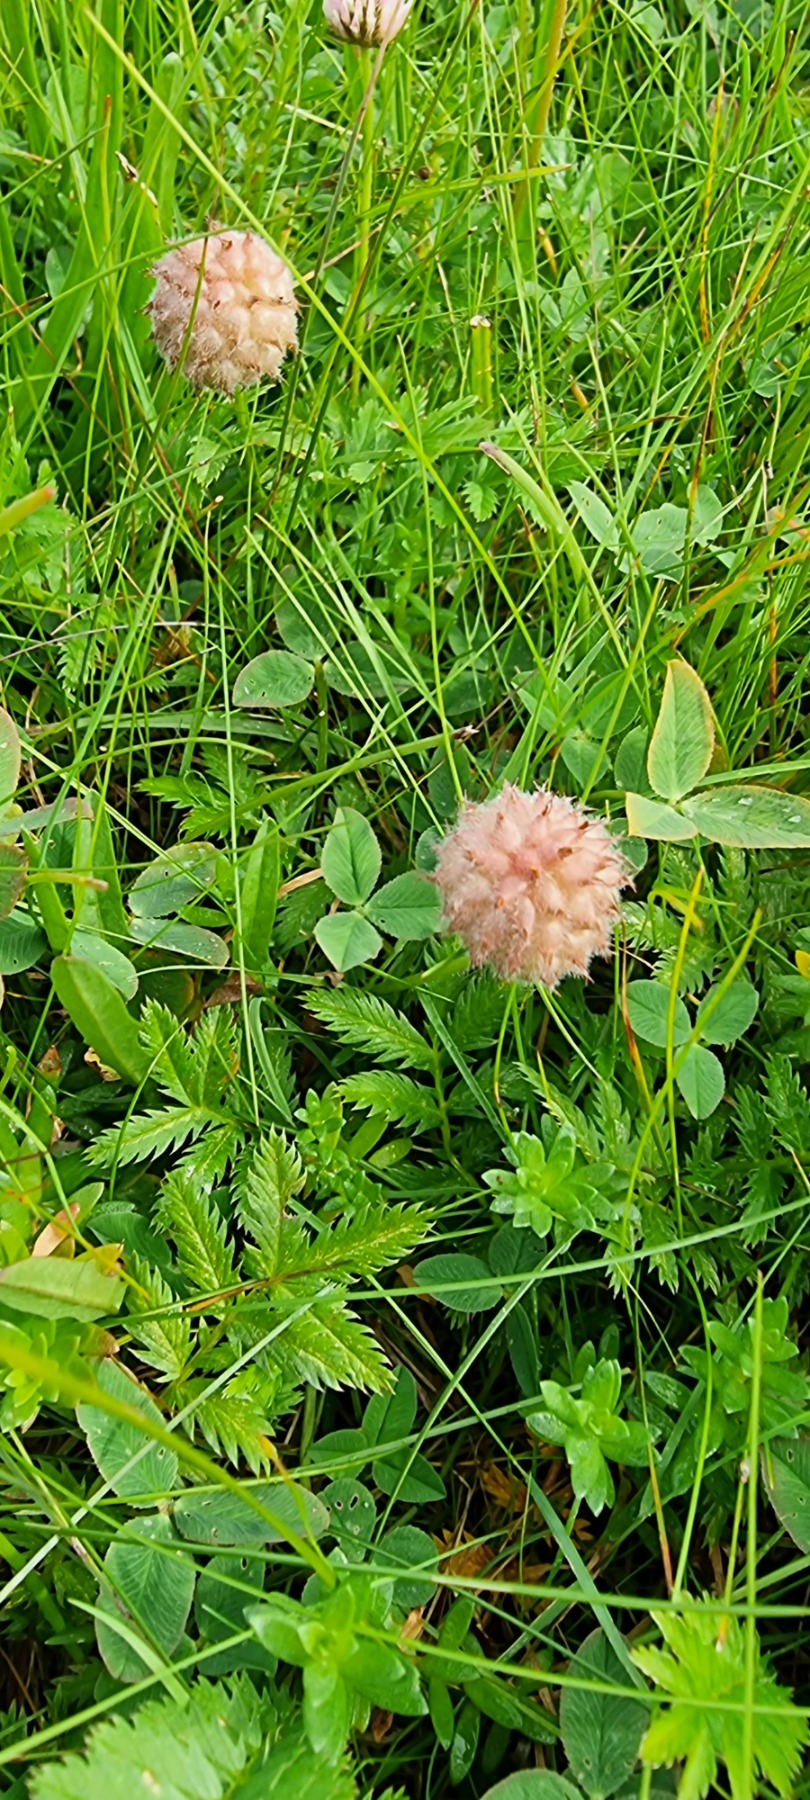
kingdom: Plantae
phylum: Tracheophyta
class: Magnoliopsida
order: Fabales
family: Fabaceae
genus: Trifolium
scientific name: Trifolium fragiferum
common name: Jordbær-kløver
